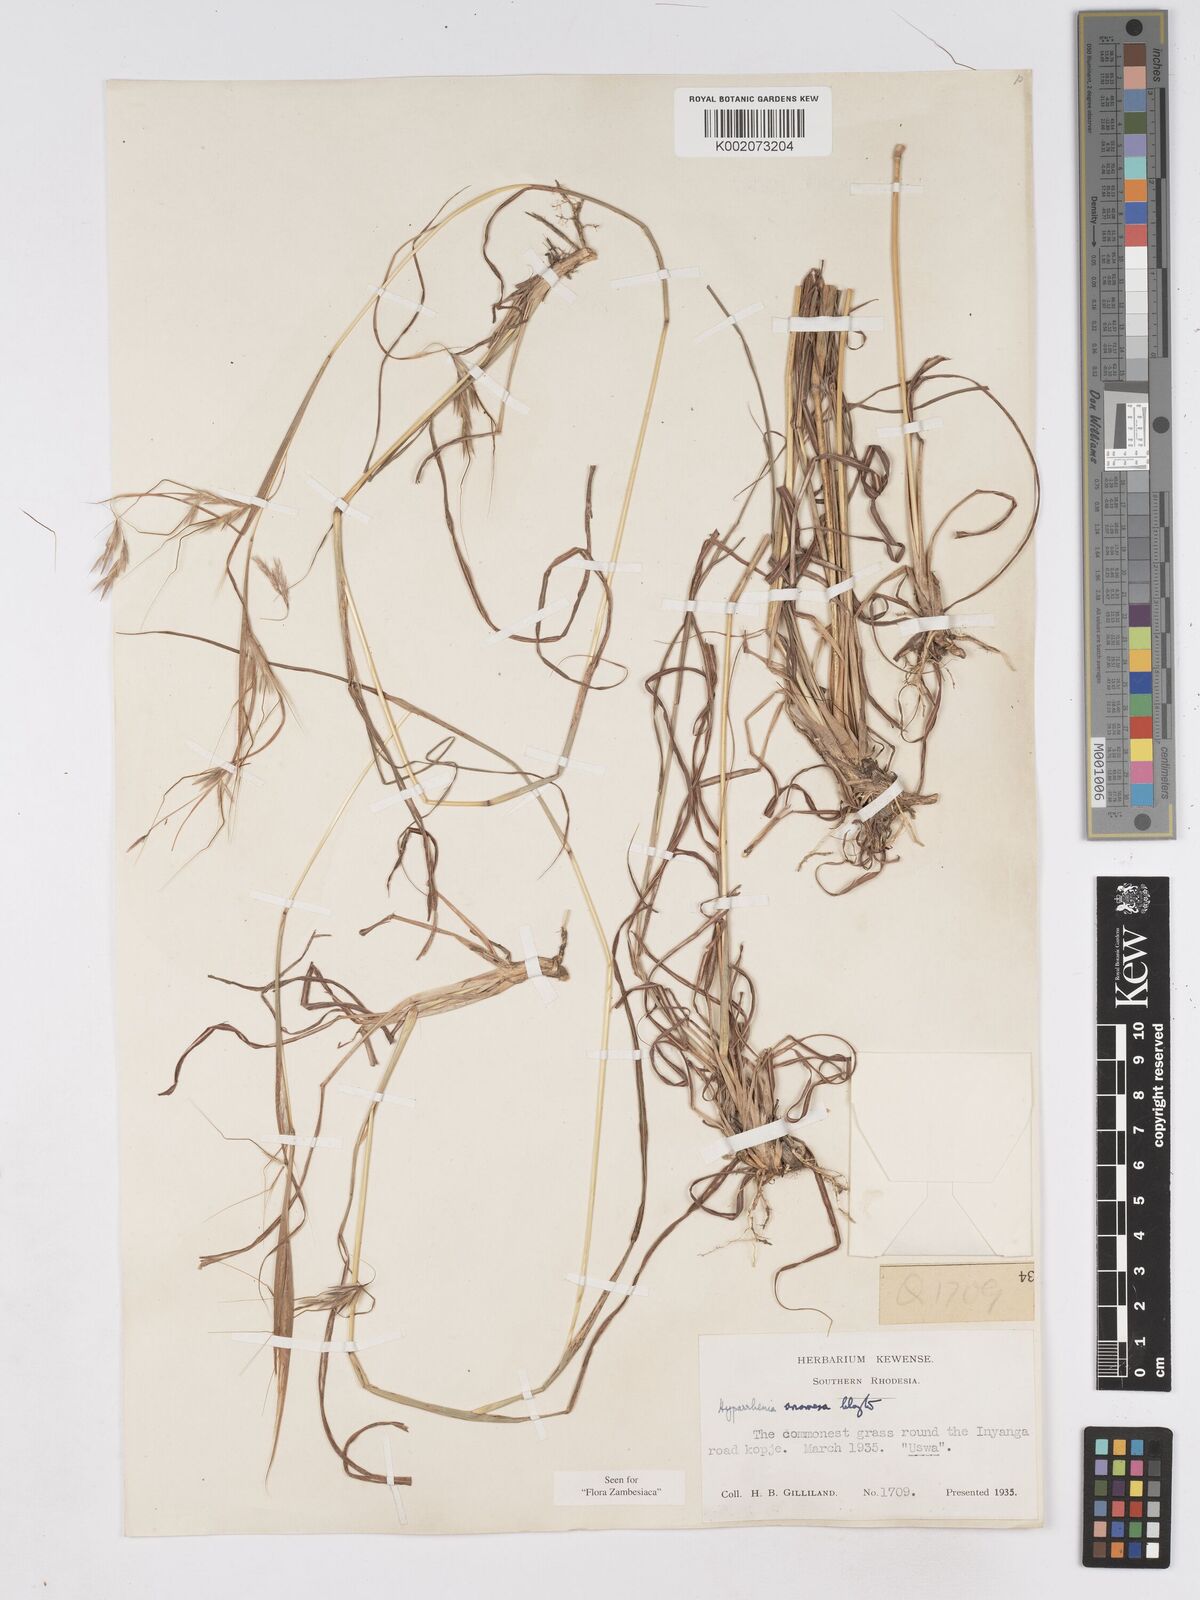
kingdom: Plantae
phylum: Tracheophyta
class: Liliopsida
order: Poales
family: Poaceae
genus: Hyparrhenia
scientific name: Hyparrhenia anamesa
